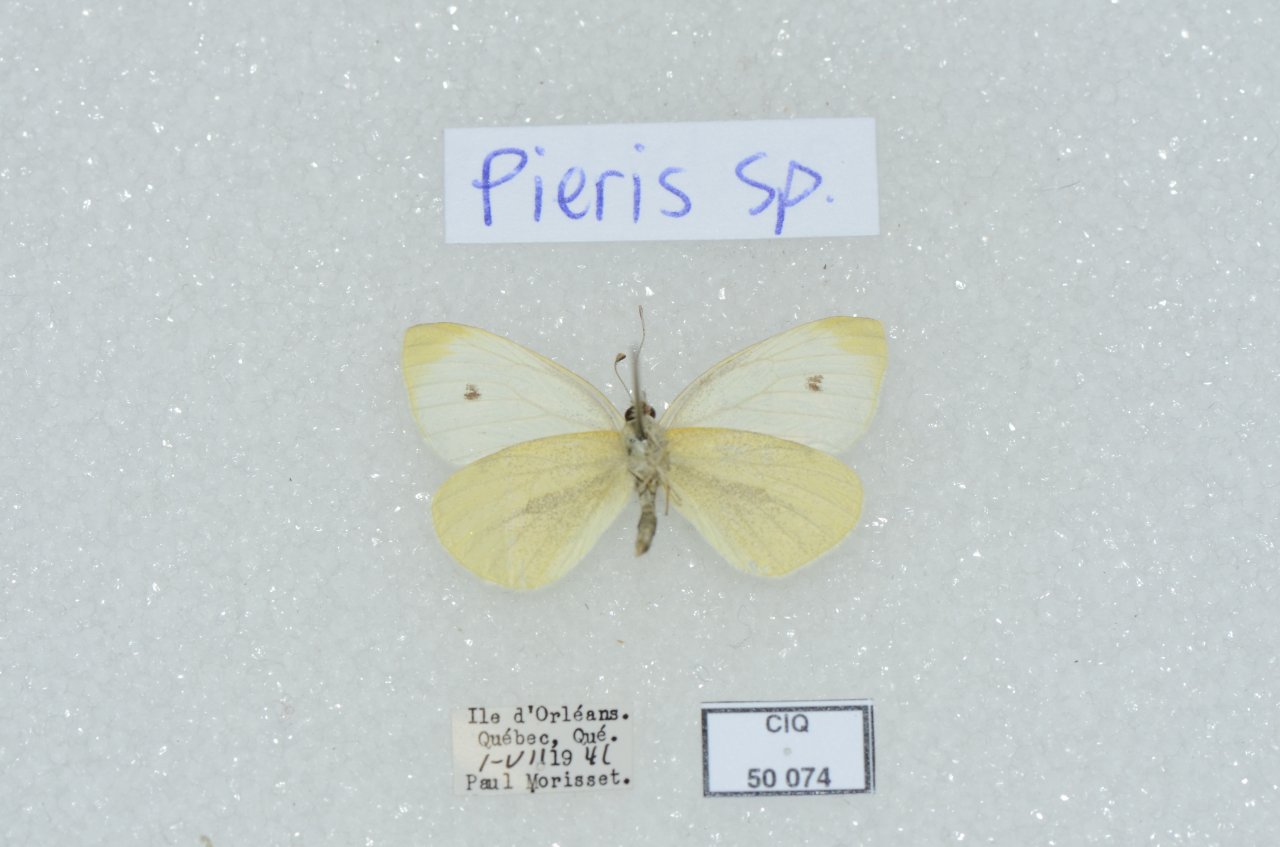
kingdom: Animalia
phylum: Arthropoda
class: Insecta
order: Lepidoptera
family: Pieridae
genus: Pieris
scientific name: Pieris rapae
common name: Cabbage White
